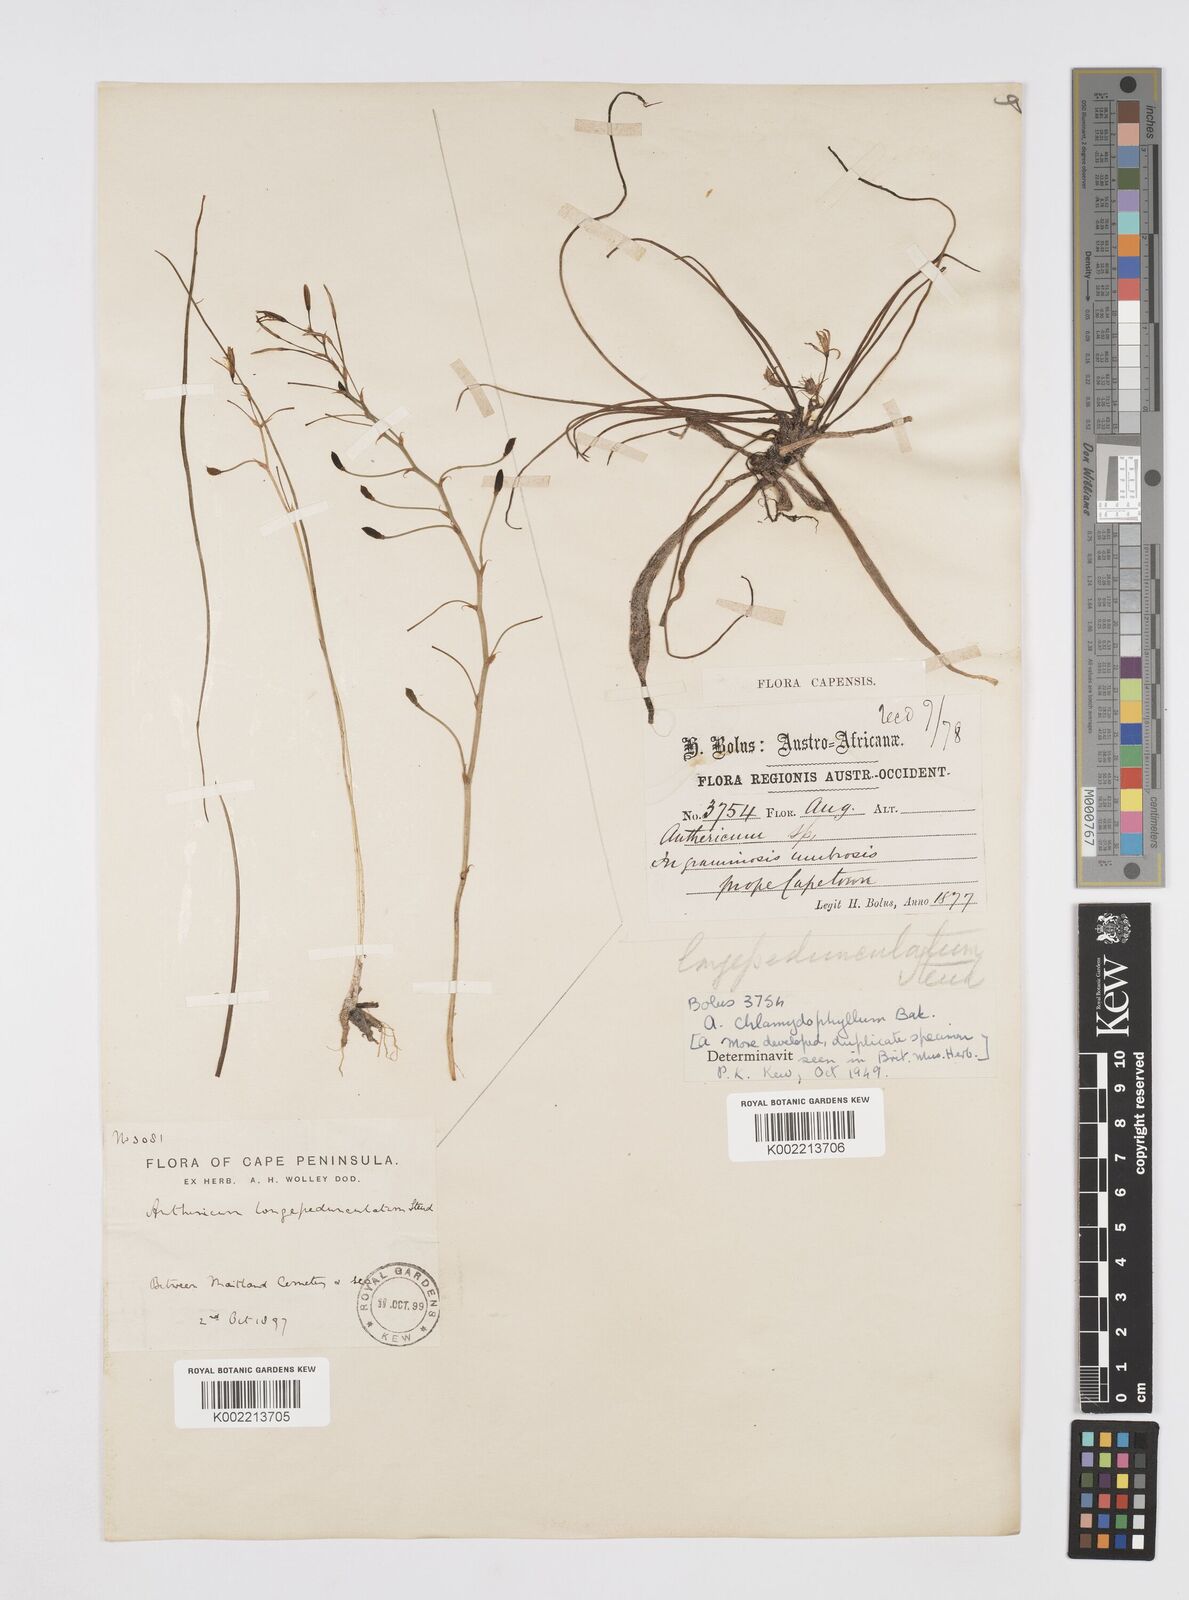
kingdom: Plantae
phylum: Tracheophyta
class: Liliopsida
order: Asparagales
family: Asphodelaceae
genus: Trachyandra
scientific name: Trachyandra filiformis
